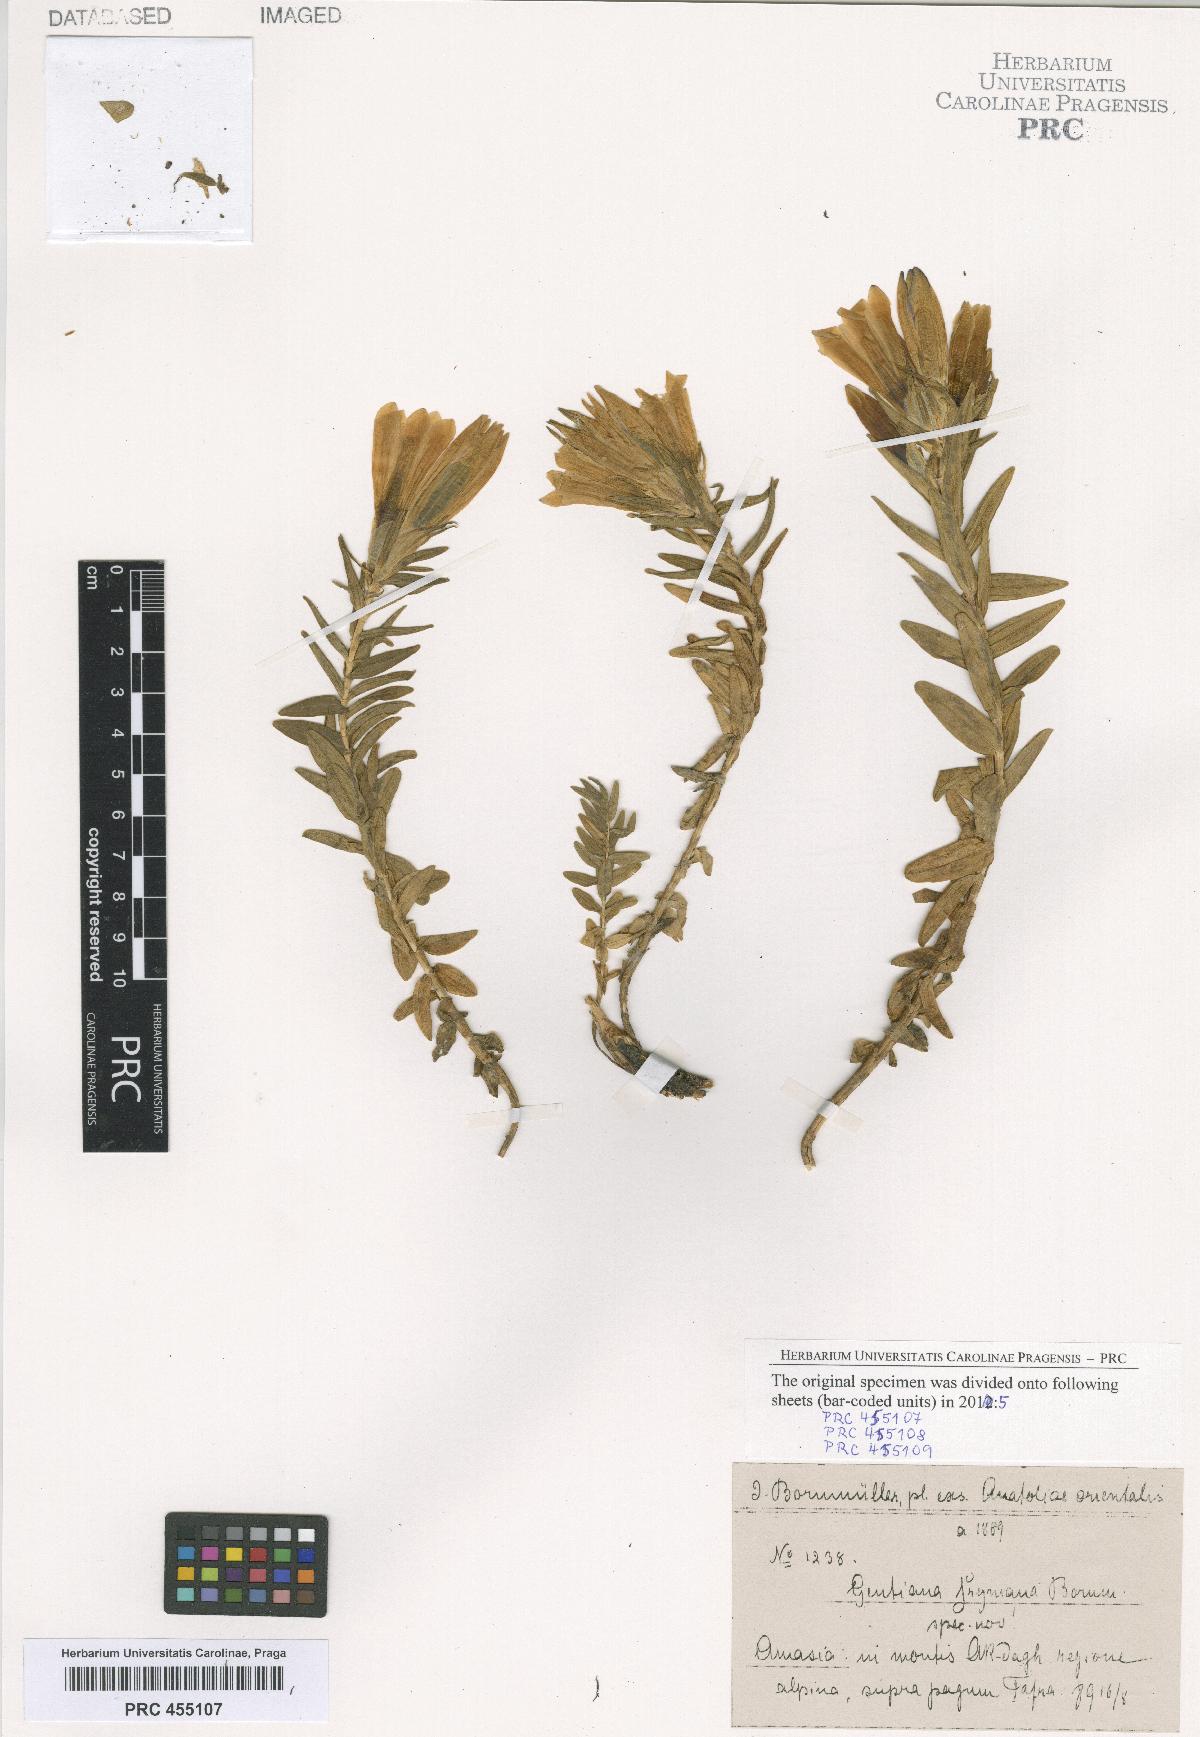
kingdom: Plantae
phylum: Tracheophyta
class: Magnoliopsida
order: Gentianales
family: Gentianaceae
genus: Gentiana
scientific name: Gentiana septemfida
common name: Crested gentian
